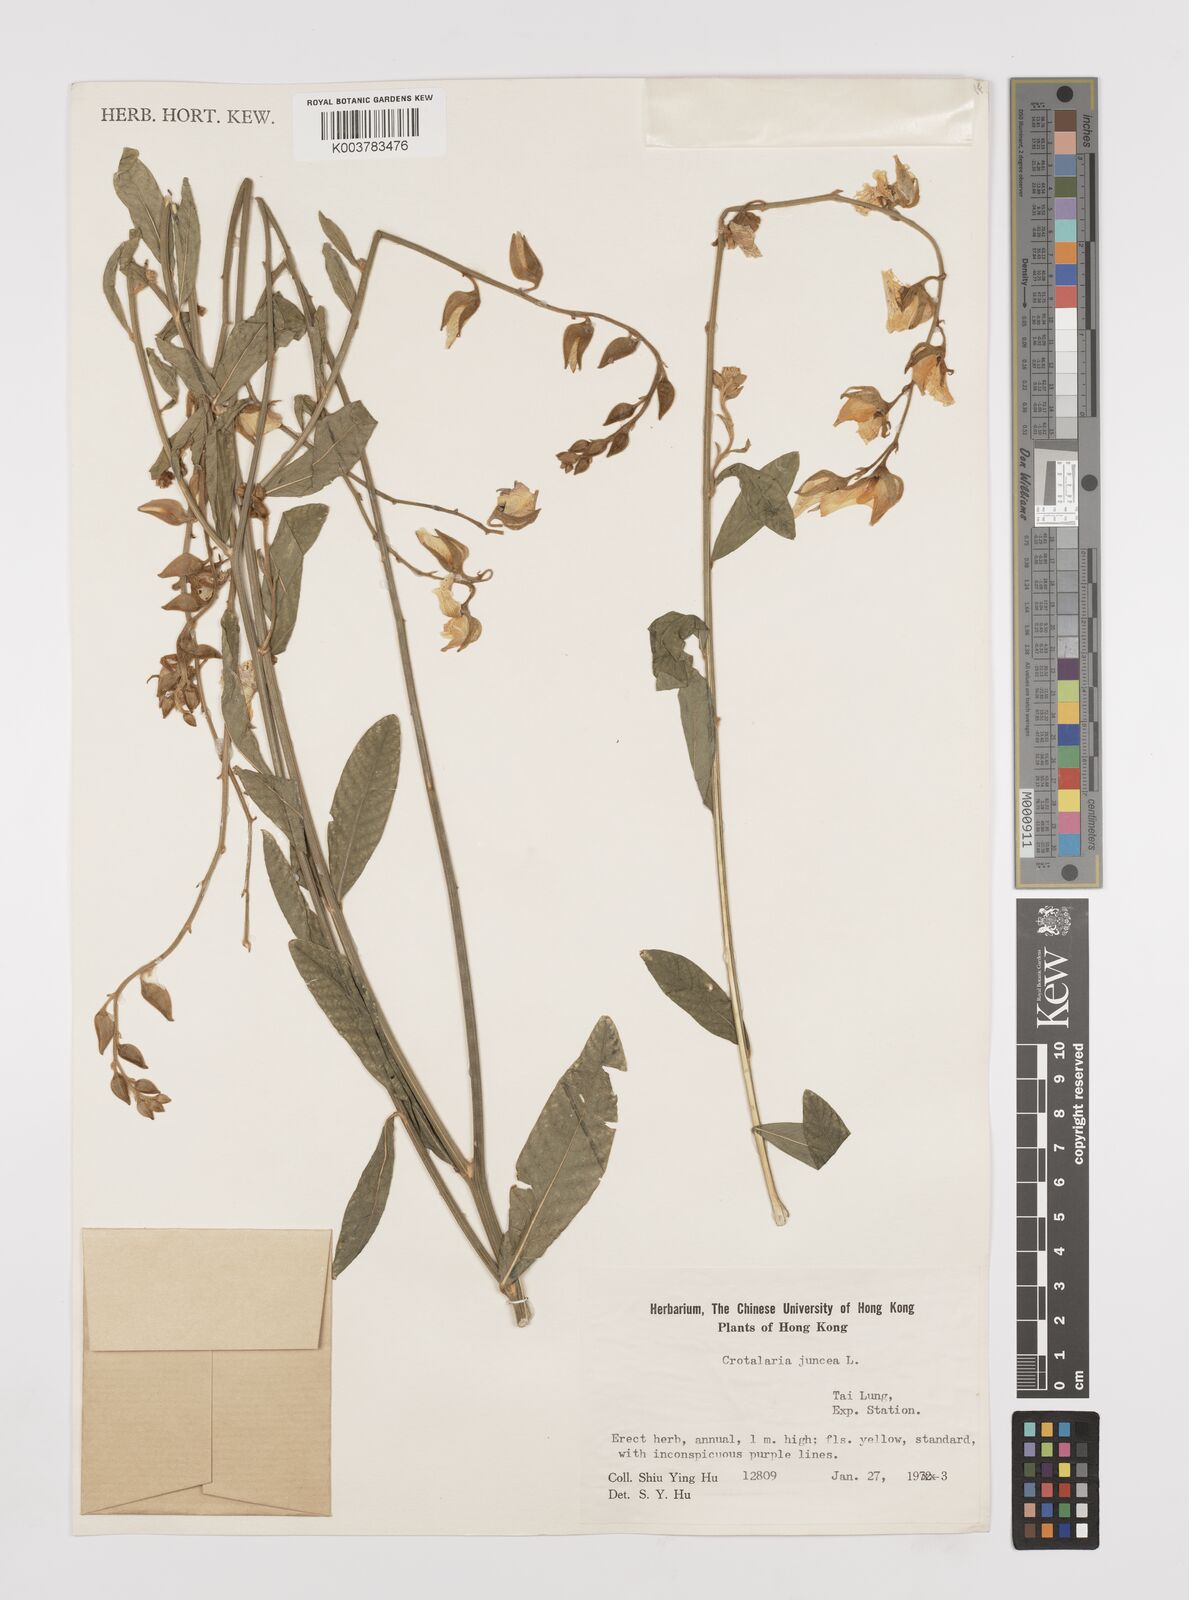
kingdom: Plantae
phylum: Tracheophyta
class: Magnoliopsida
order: Fabales
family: Fabaceae
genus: Crotalaria
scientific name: Crotalaria juncea
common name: Sunn hemp
